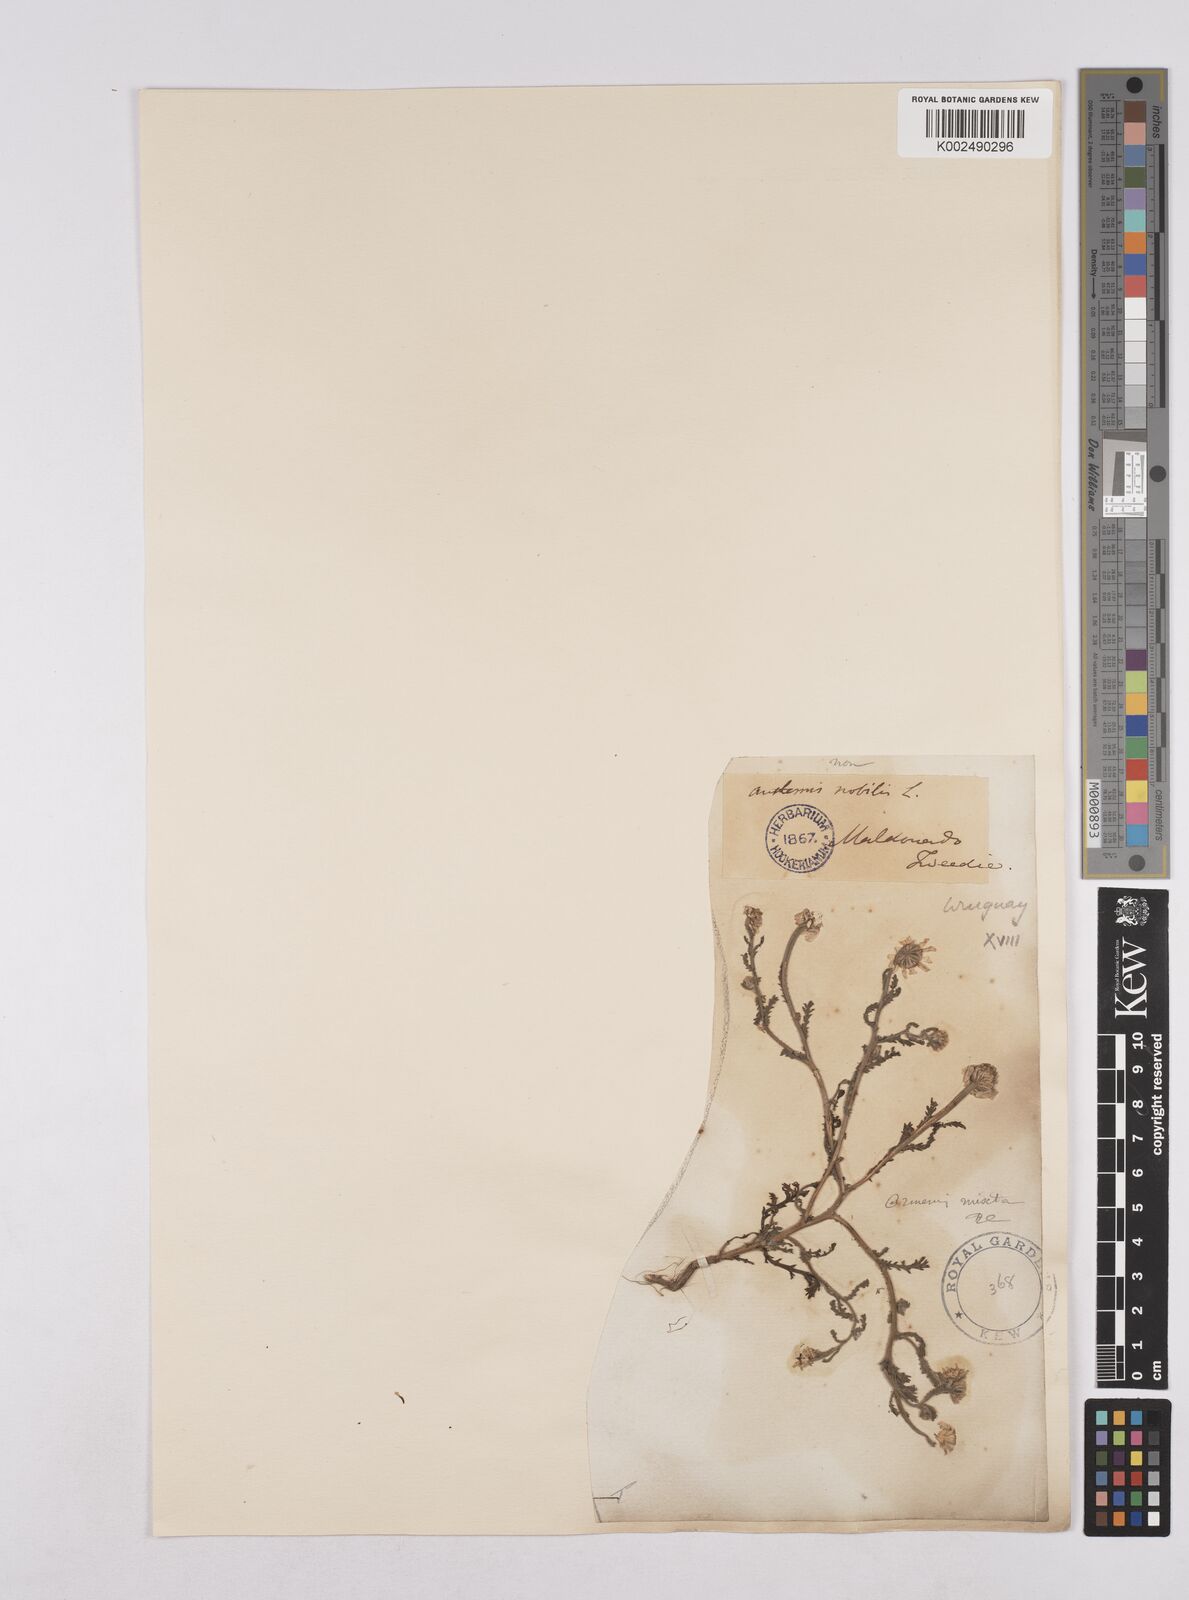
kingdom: Plantae
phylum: Tracheophyta
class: Magnoliopsida
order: Asterales
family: Asteraceae
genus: Cladanthus
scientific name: Cladanthus mixtus
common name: Weedy dogfennel
